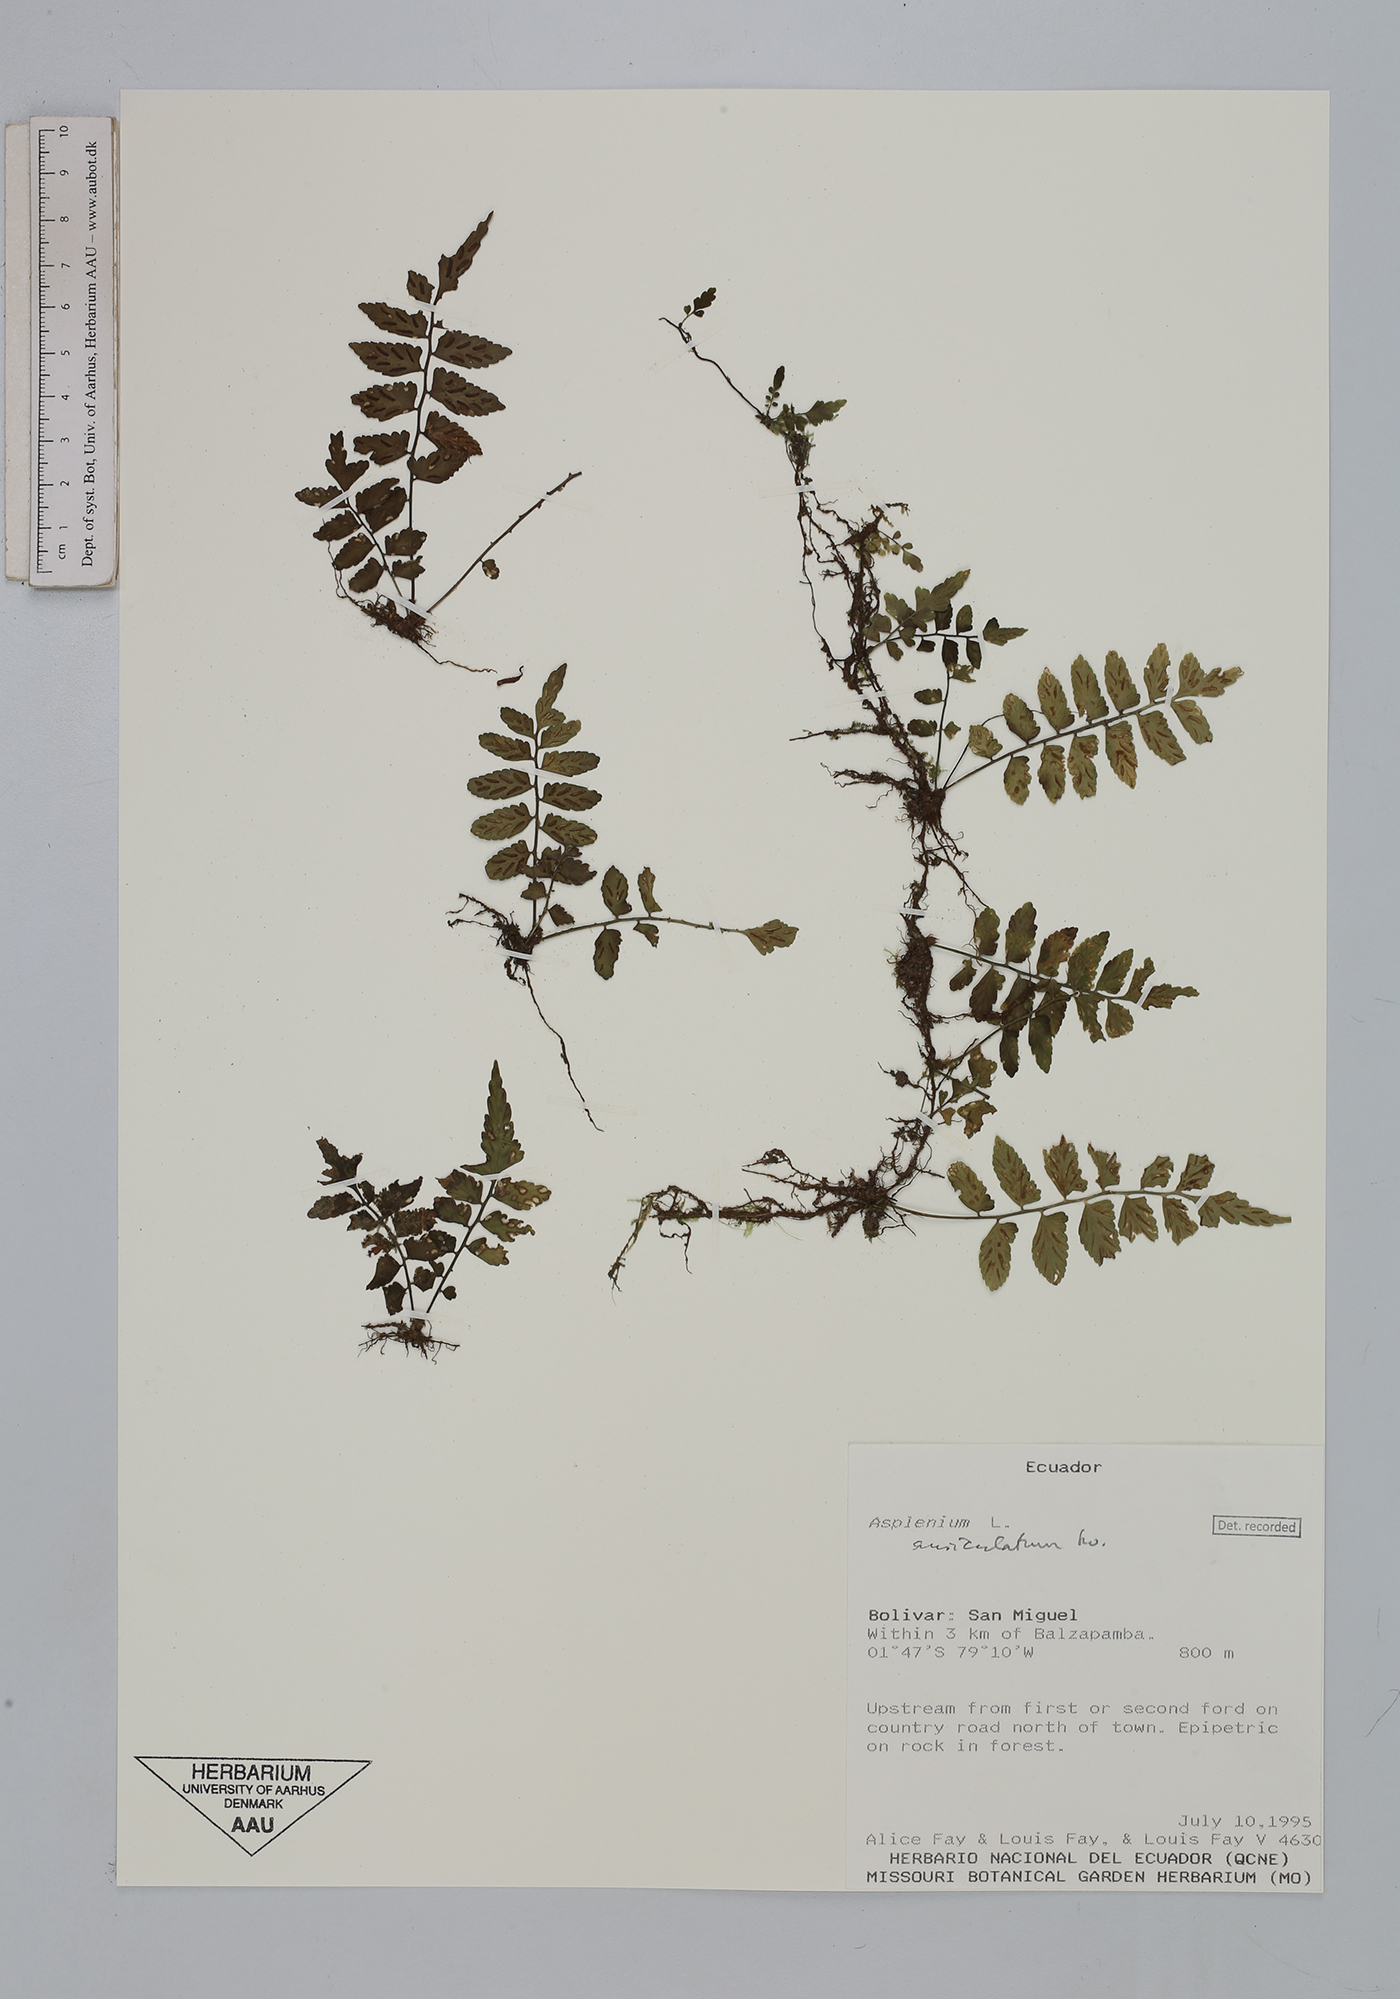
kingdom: Plantae
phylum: Tracheophyta
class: Polypodiopsida
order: Polypodiales
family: Aspleniaceae
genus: Asplenium
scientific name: Asplenium auriculatum
